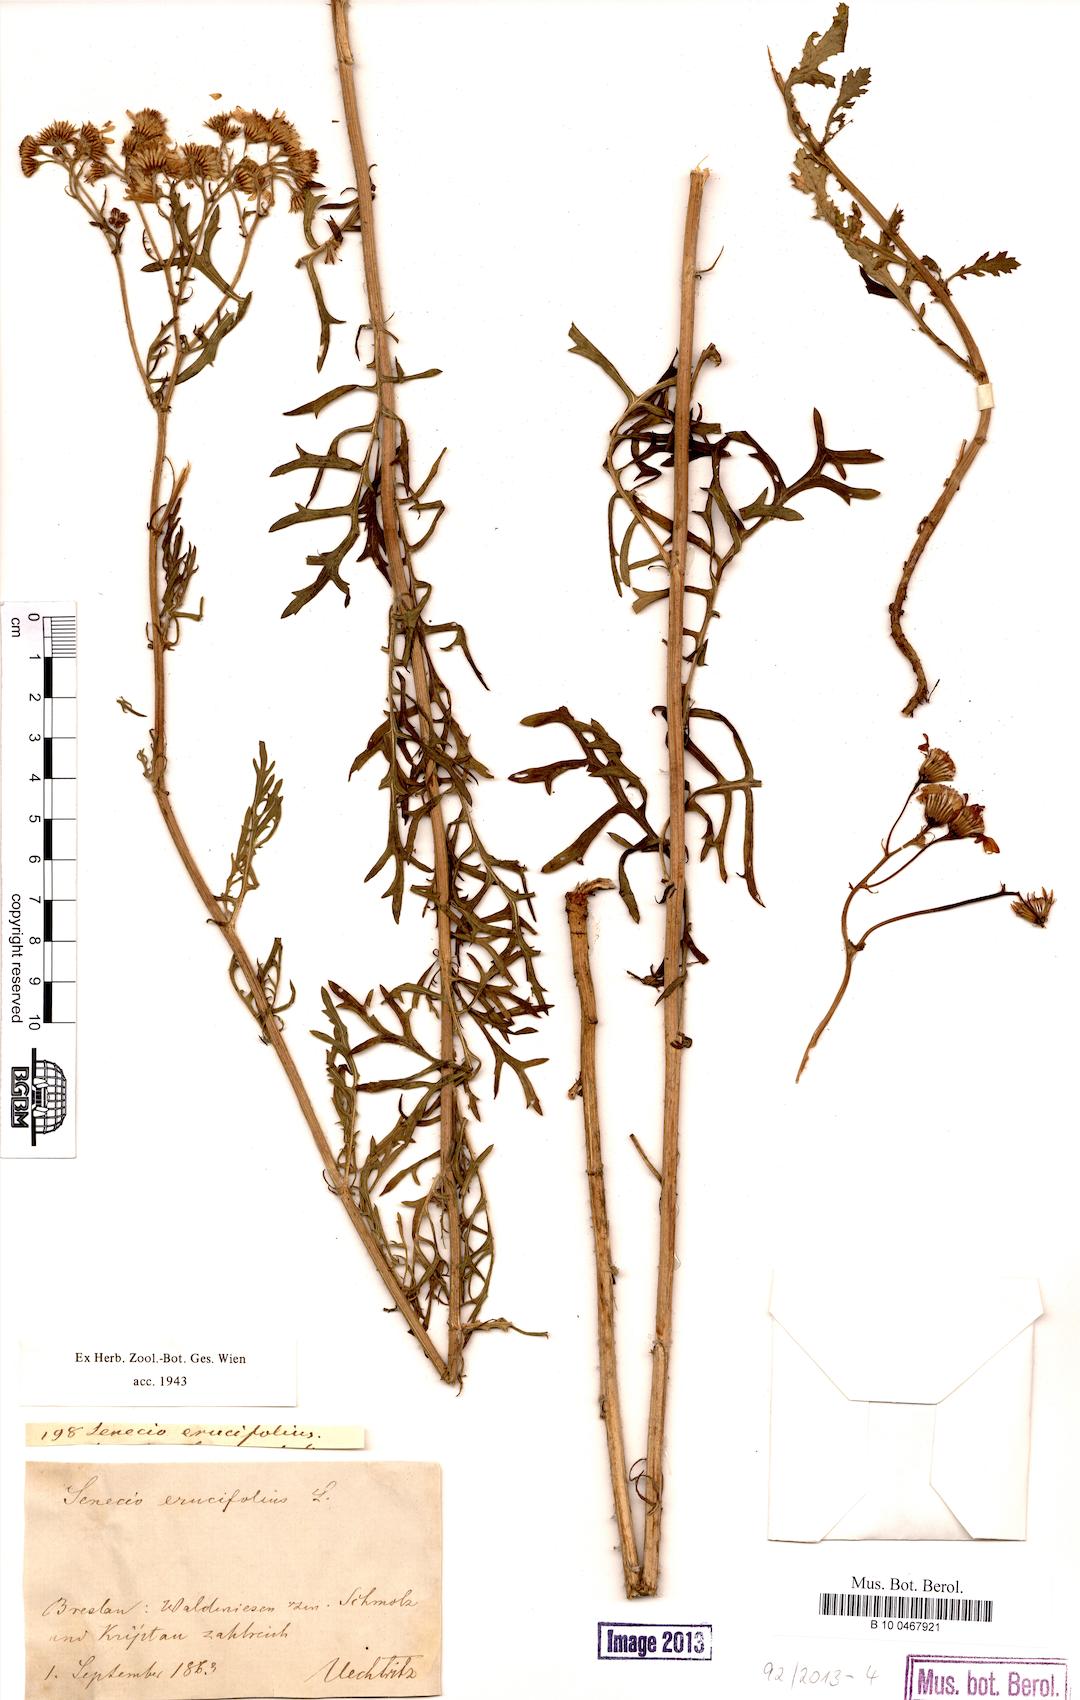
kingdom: Plantae
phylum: Tracheophyta
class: Magnoliopsida
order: Asterales
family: Asteraceae
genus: Jacobaea
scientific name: Jacobaea erucifolia
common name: Hoary ragwort
